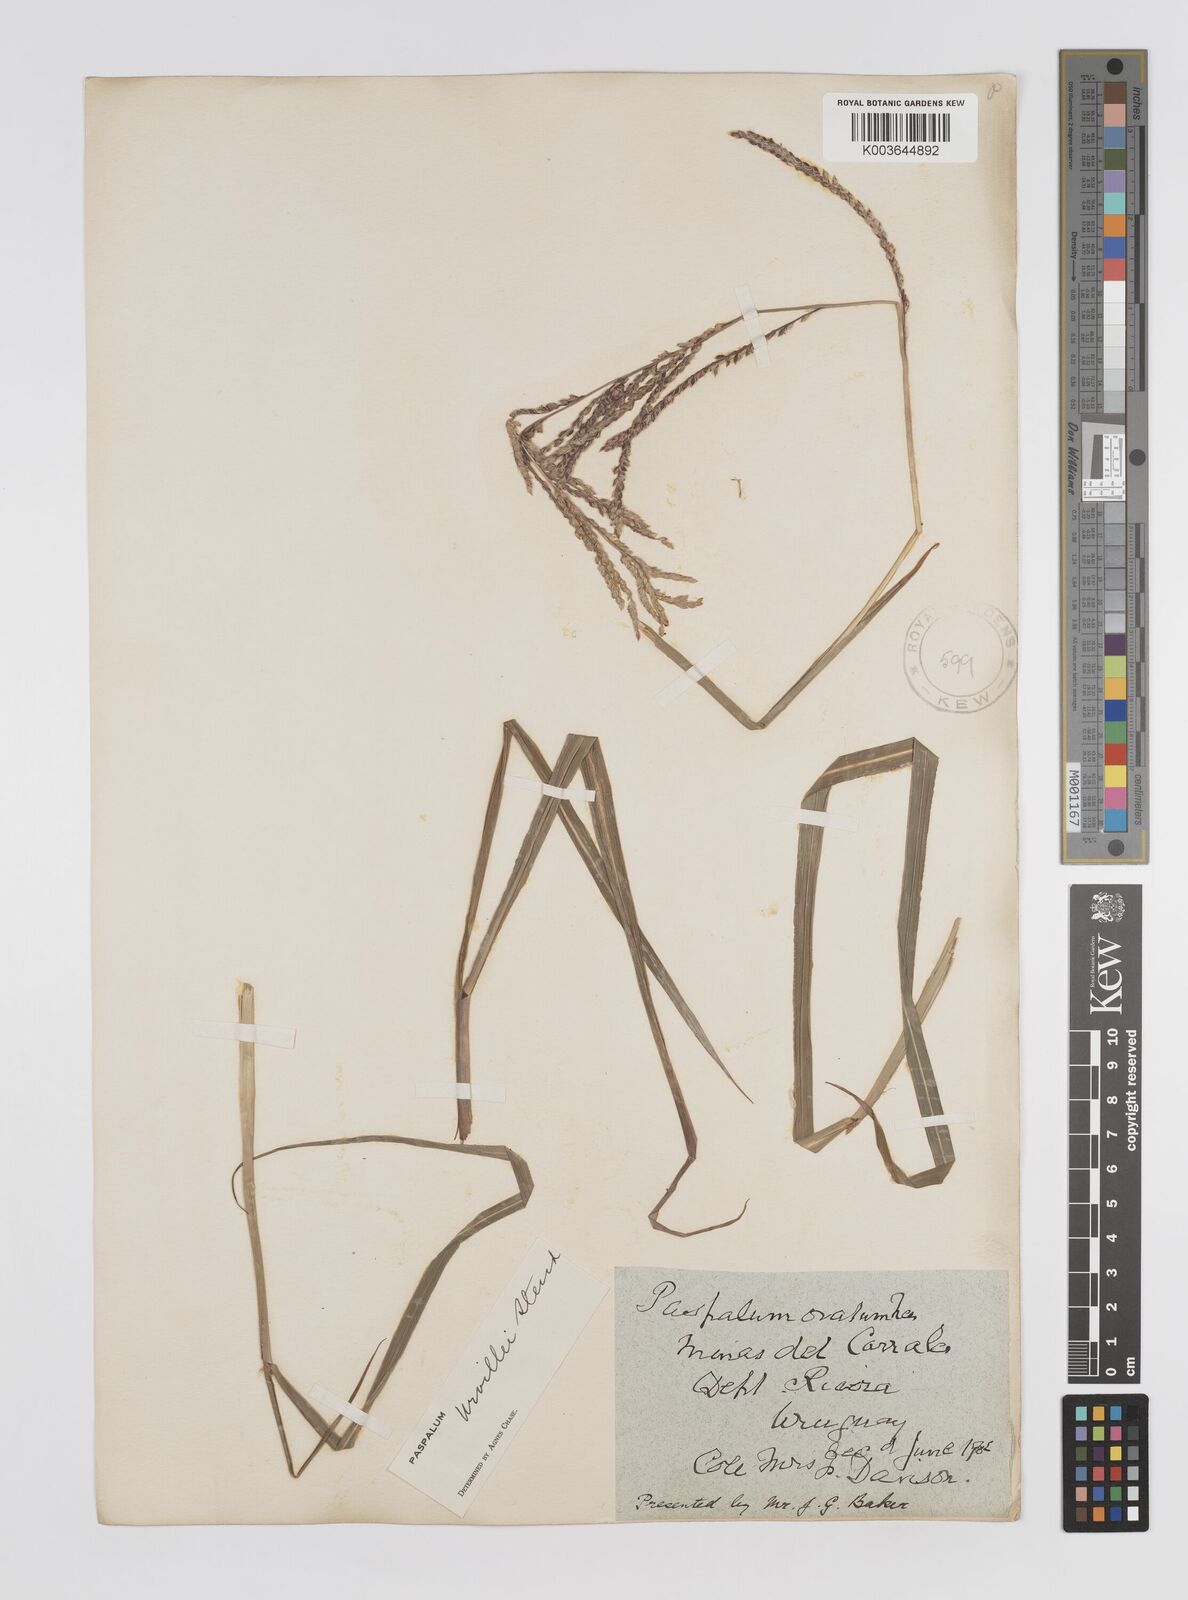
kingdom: Plantae
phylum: Tracheophyta
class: Liliopsida
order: Poales
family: Poaceae
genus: Paspalum
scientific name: Paspalum urvillei
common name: Vasey's grass
